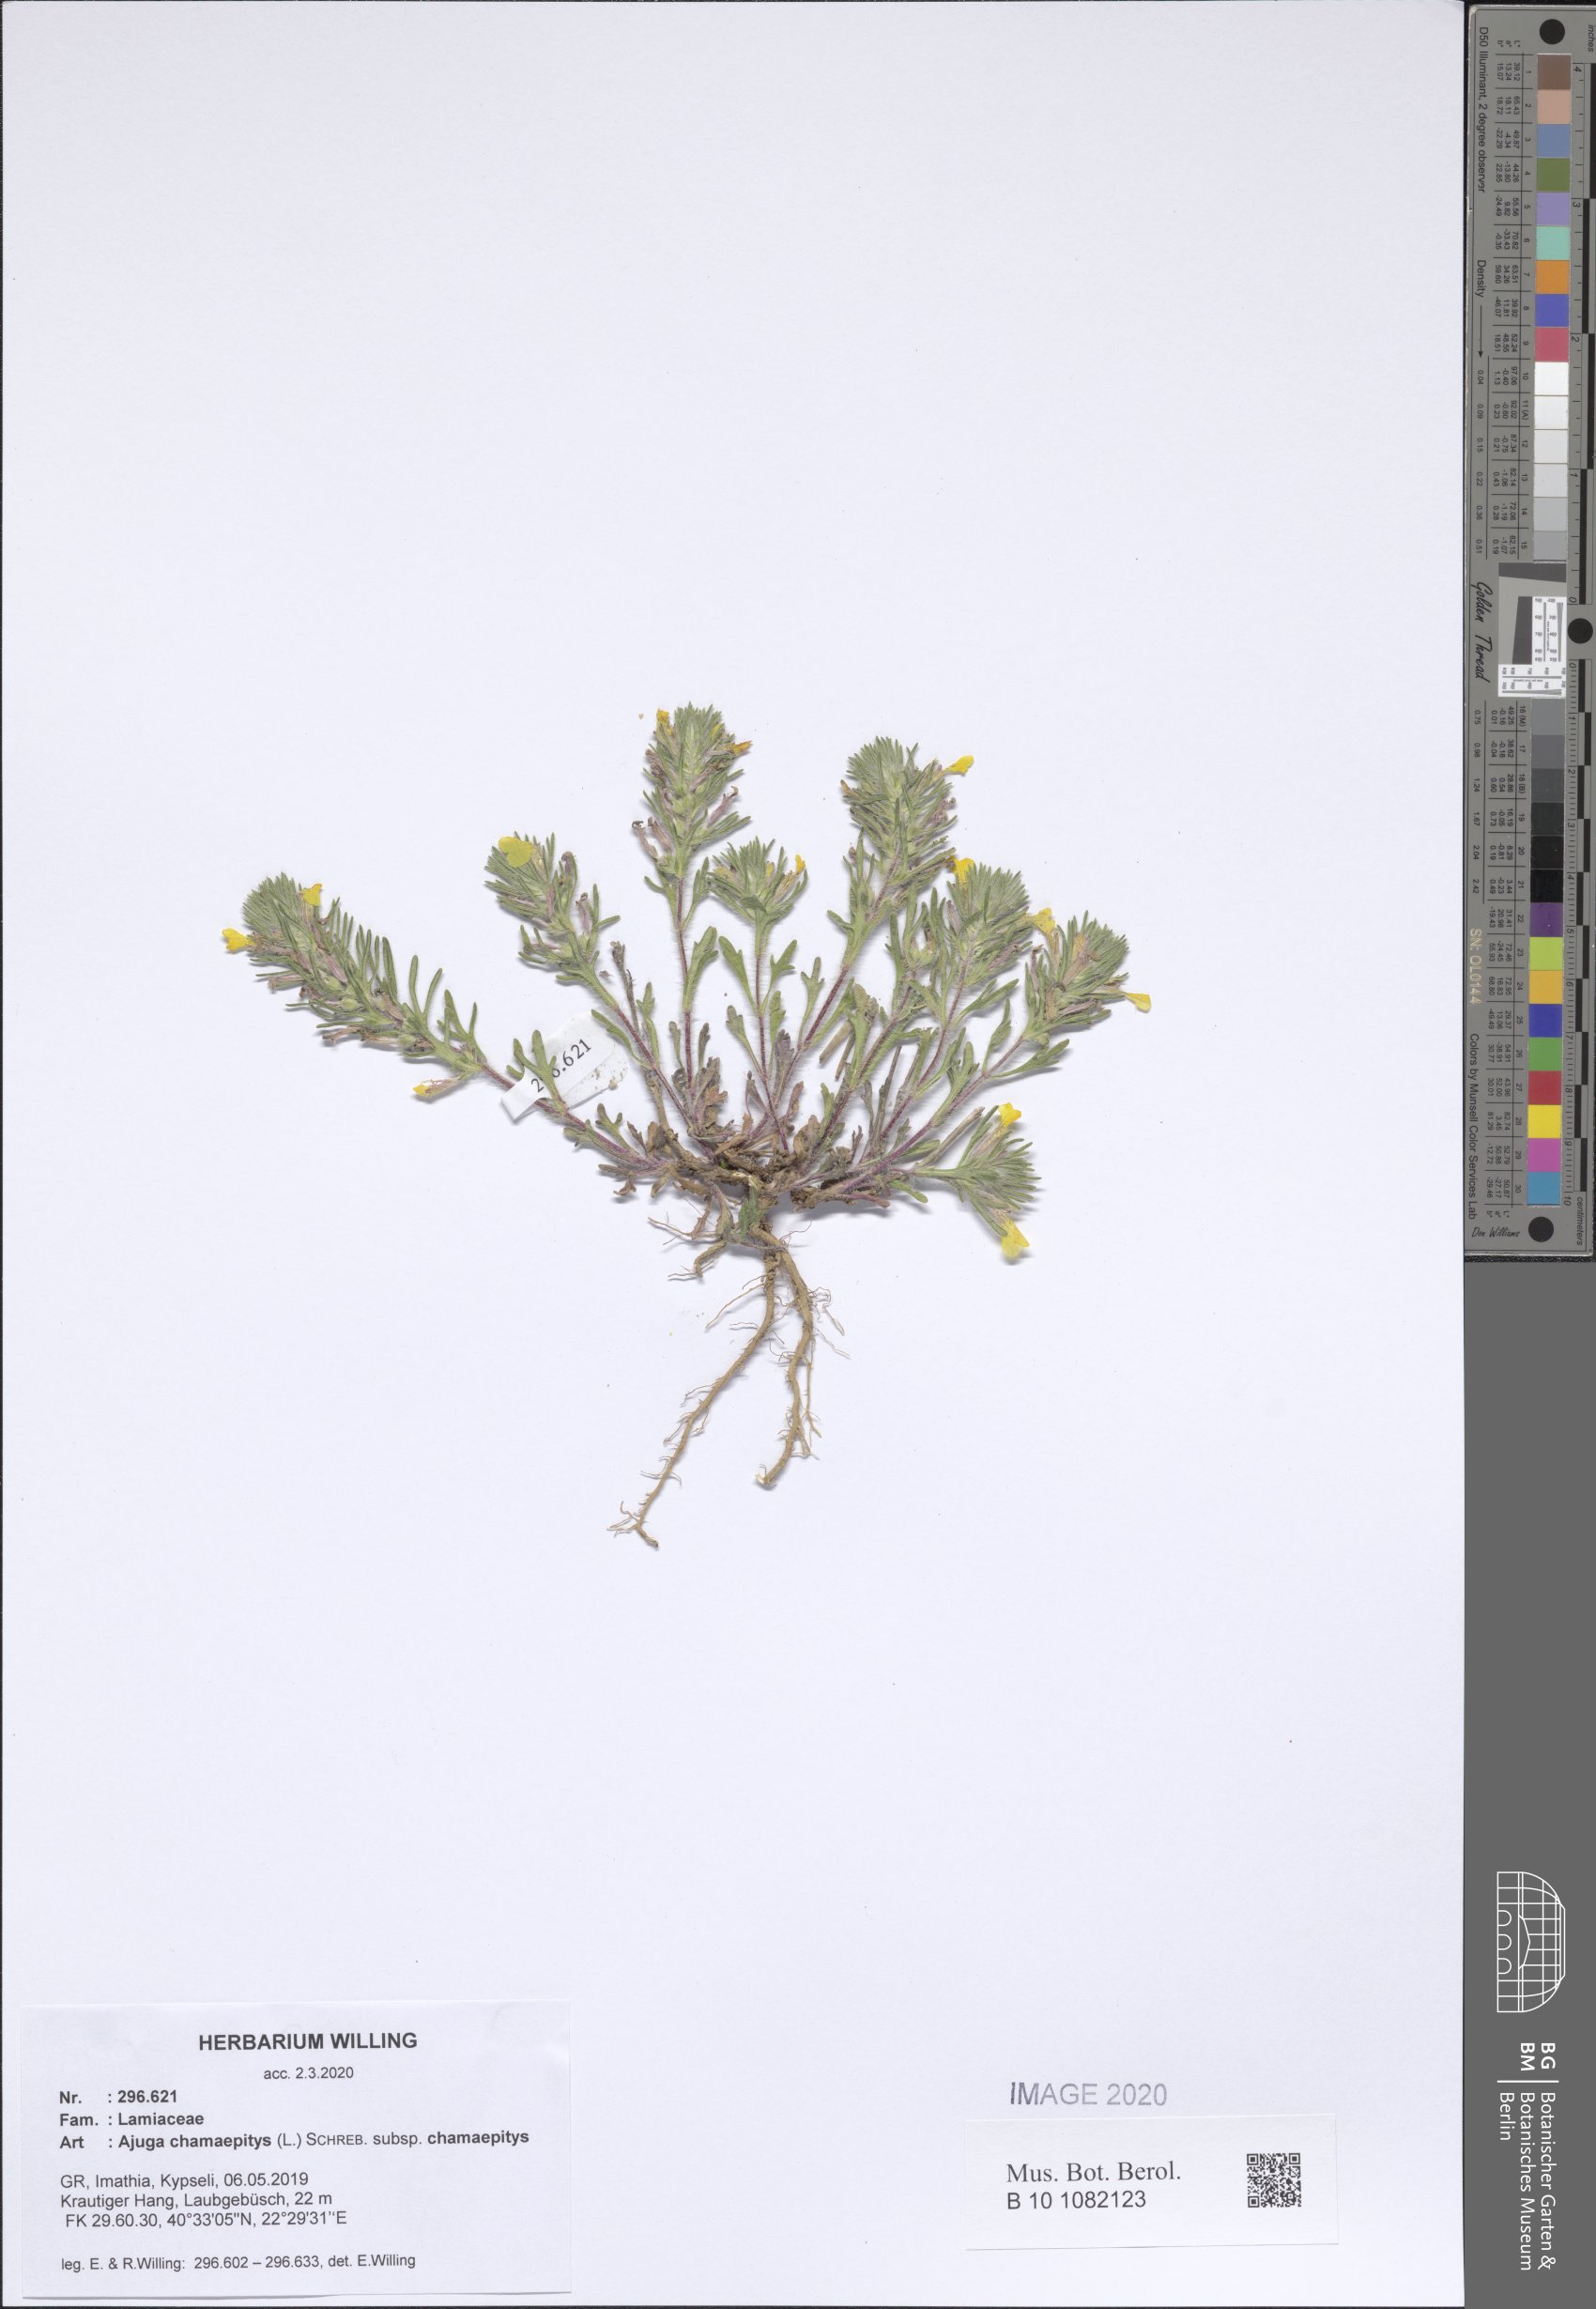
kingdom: Plantae
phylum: Tracheophyta
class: Magnoliopsida
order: Lamiales
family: Lamiaceae
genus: Ajuga
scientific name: Ajuga chamaepitys
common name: Ground-pine
